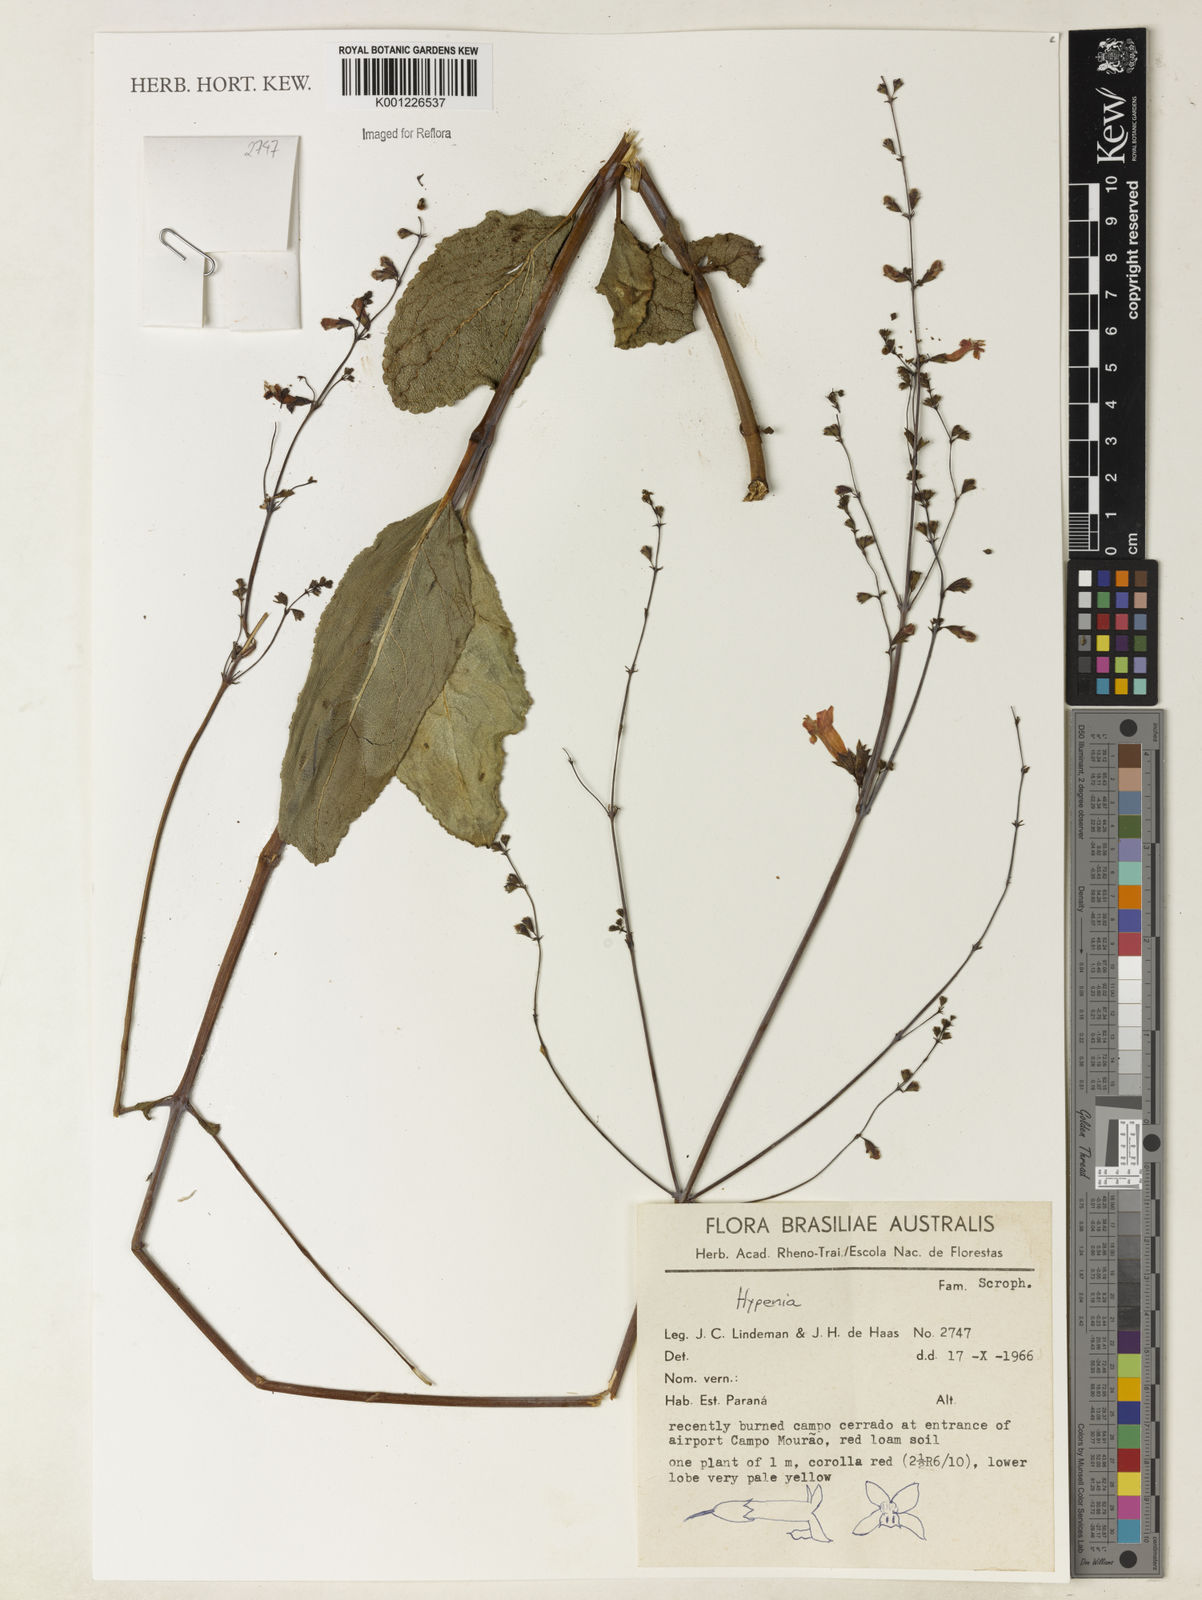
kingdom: Plantae
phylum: Tracheophyta
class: Magnoliopsida
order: Lamiales
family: Lamiaceae
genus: Hypenia
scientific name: Hypenia
